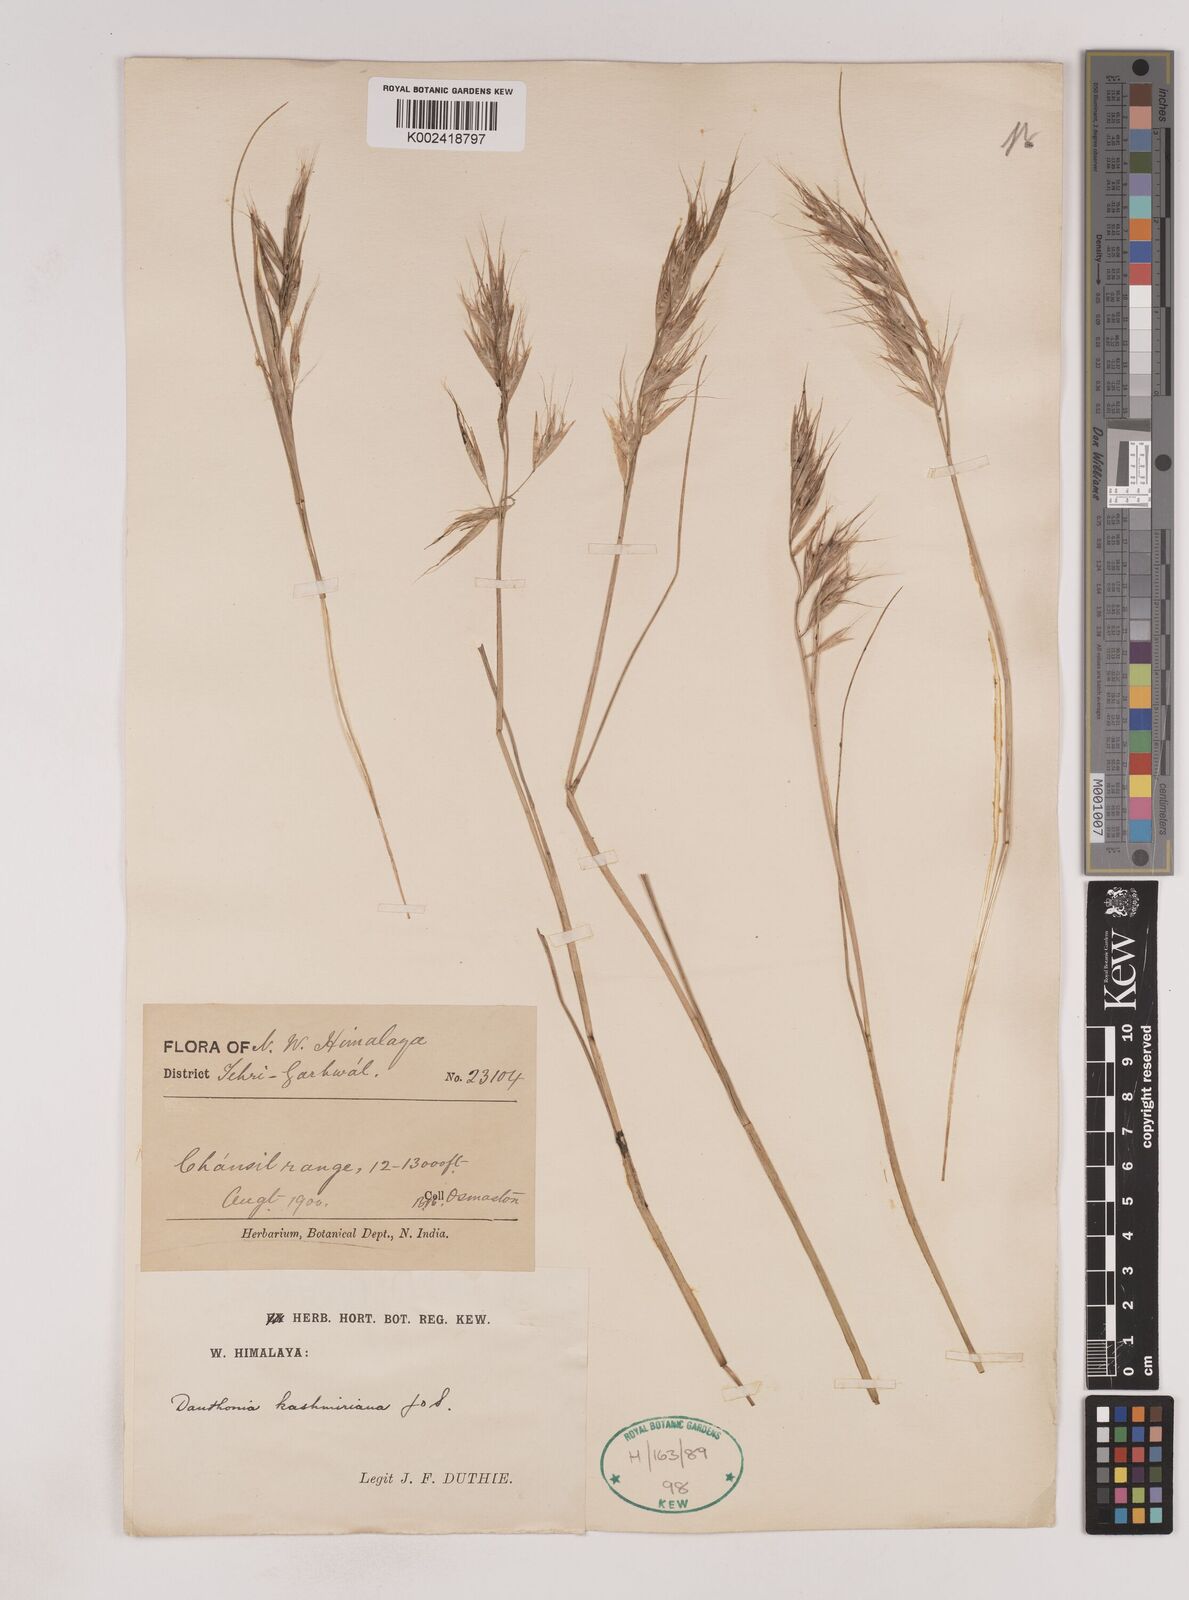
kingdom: Plantae
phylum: Tracheophyta
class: Liliopsida
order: Poales
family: Poaceae
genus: Pseudodanthonia
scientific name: Pseudodanthonia himalaica
